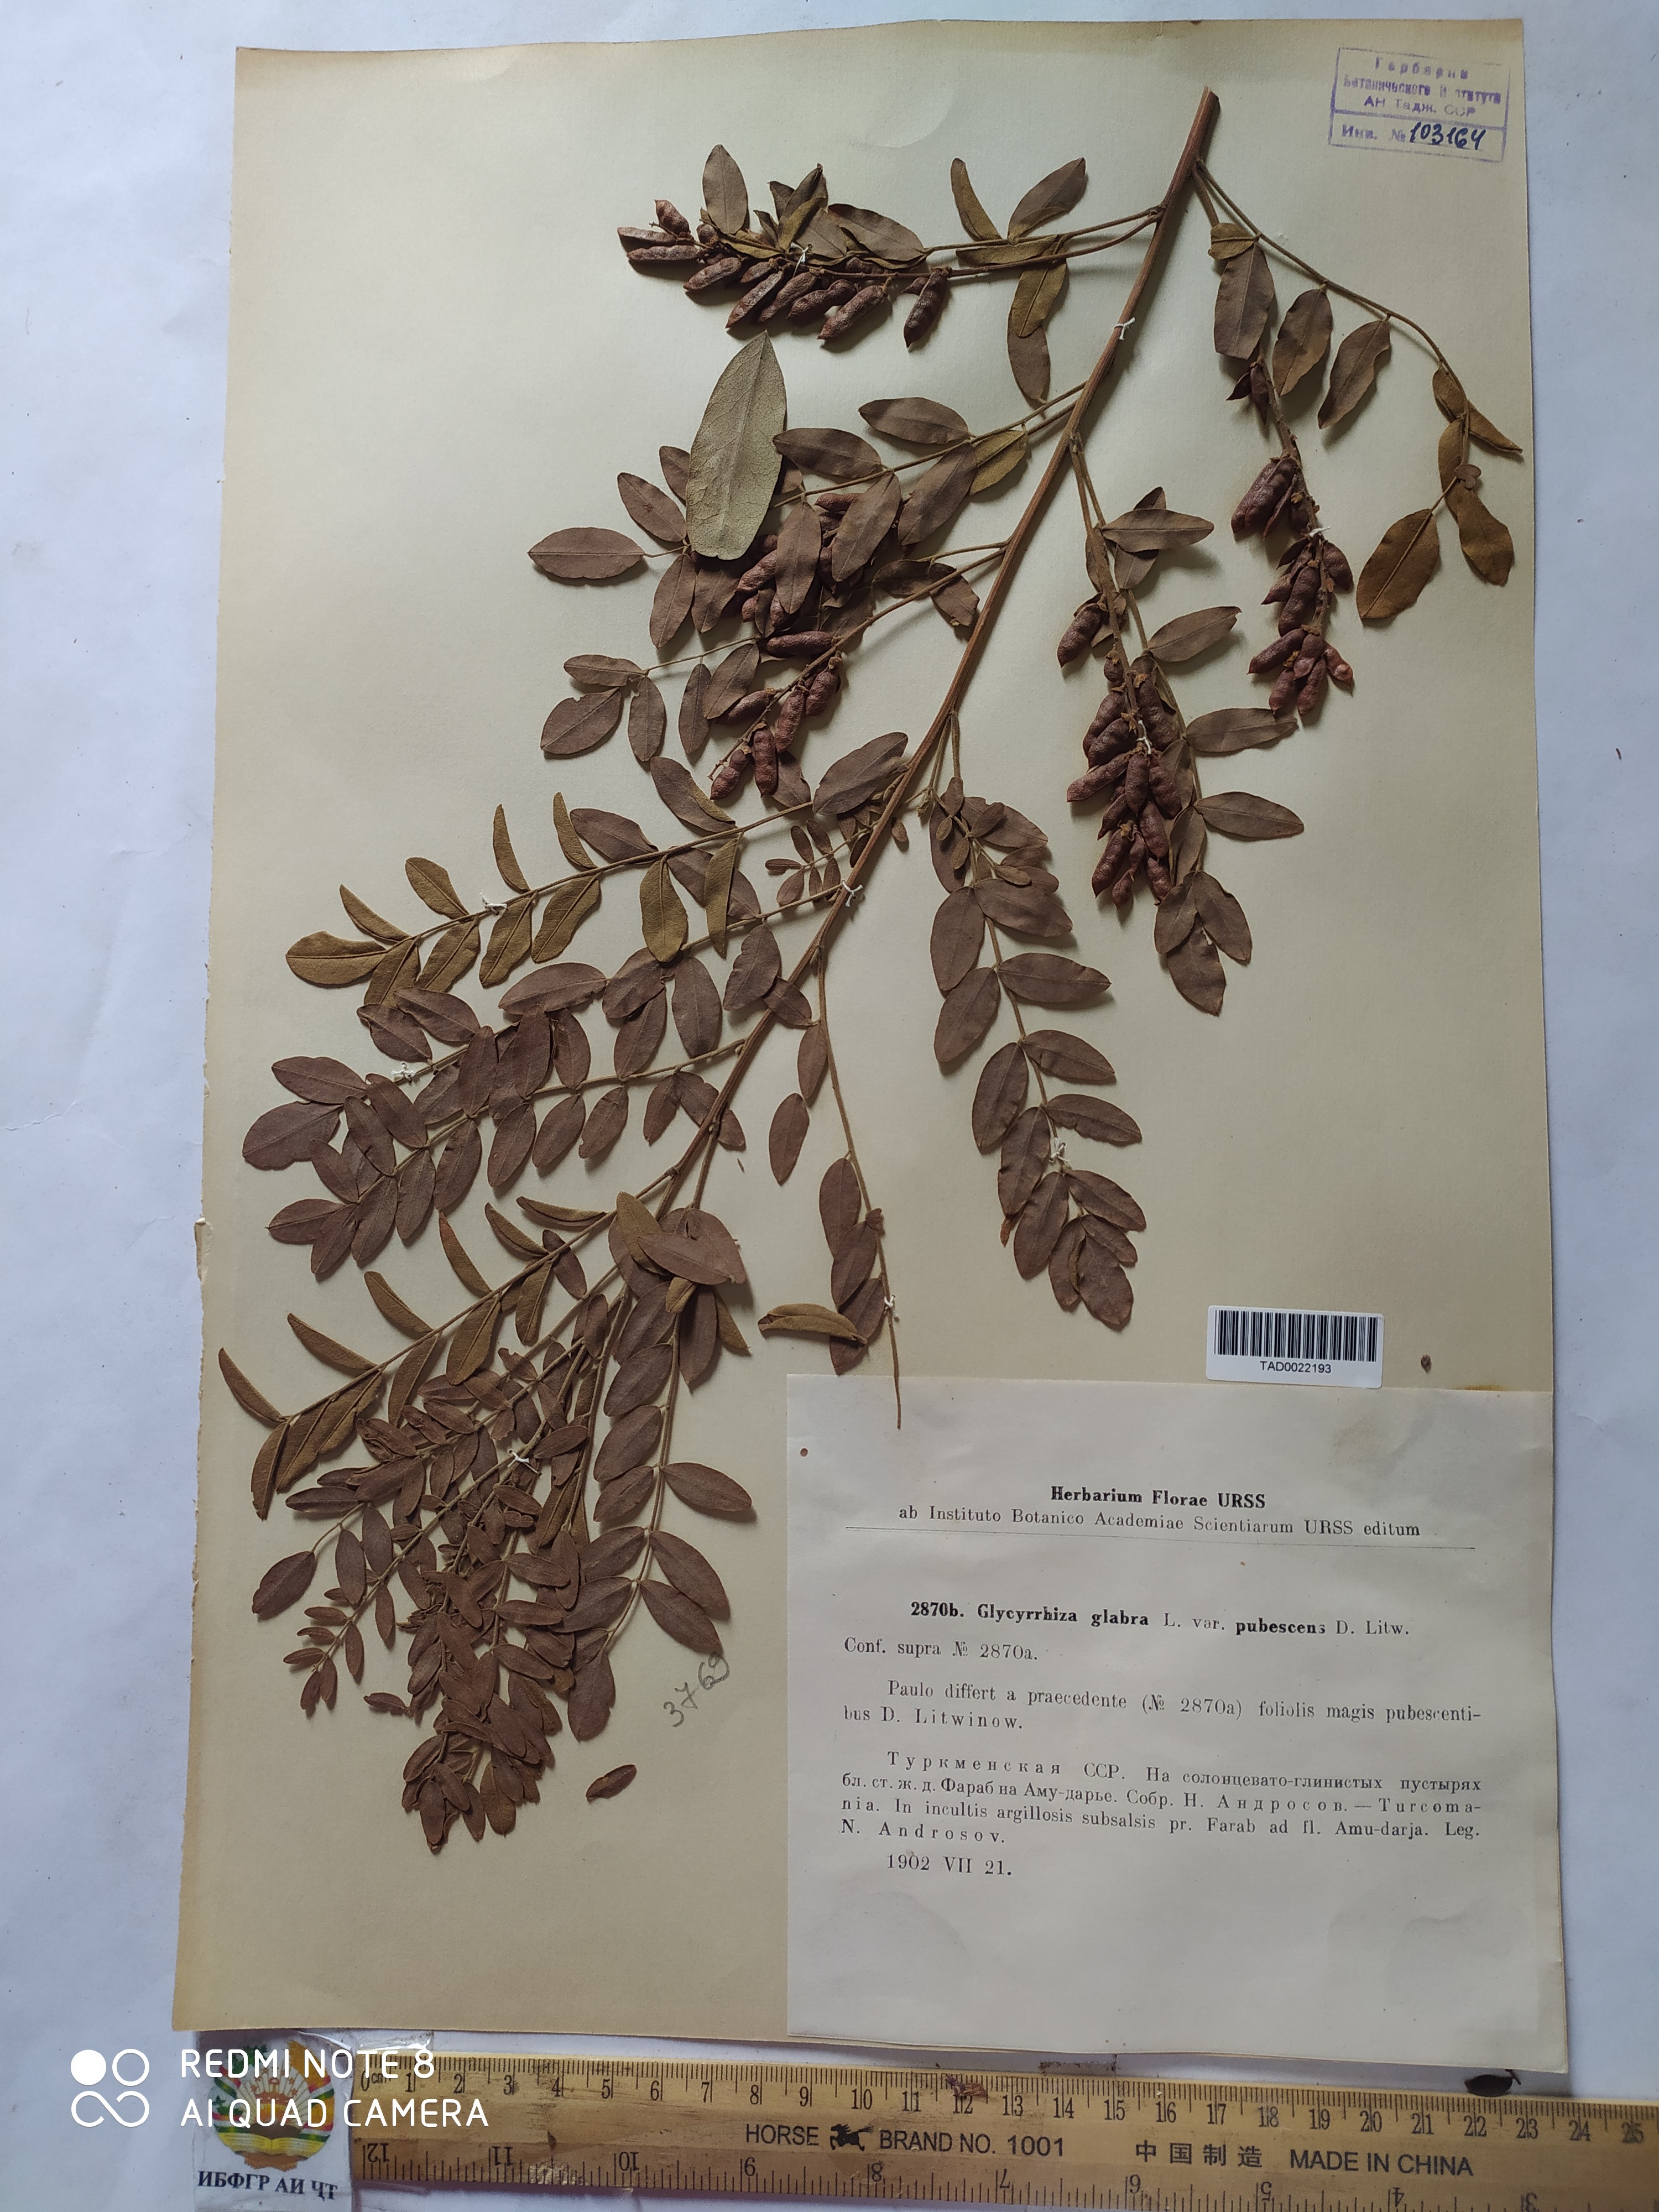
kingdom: Plantae
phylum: Tracheophyta
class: Magnoliopsida
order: Fabales
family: Fabaceae
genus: Glycyrrhiza
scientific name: Glycyrrhiza glabra
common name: Liquorice
